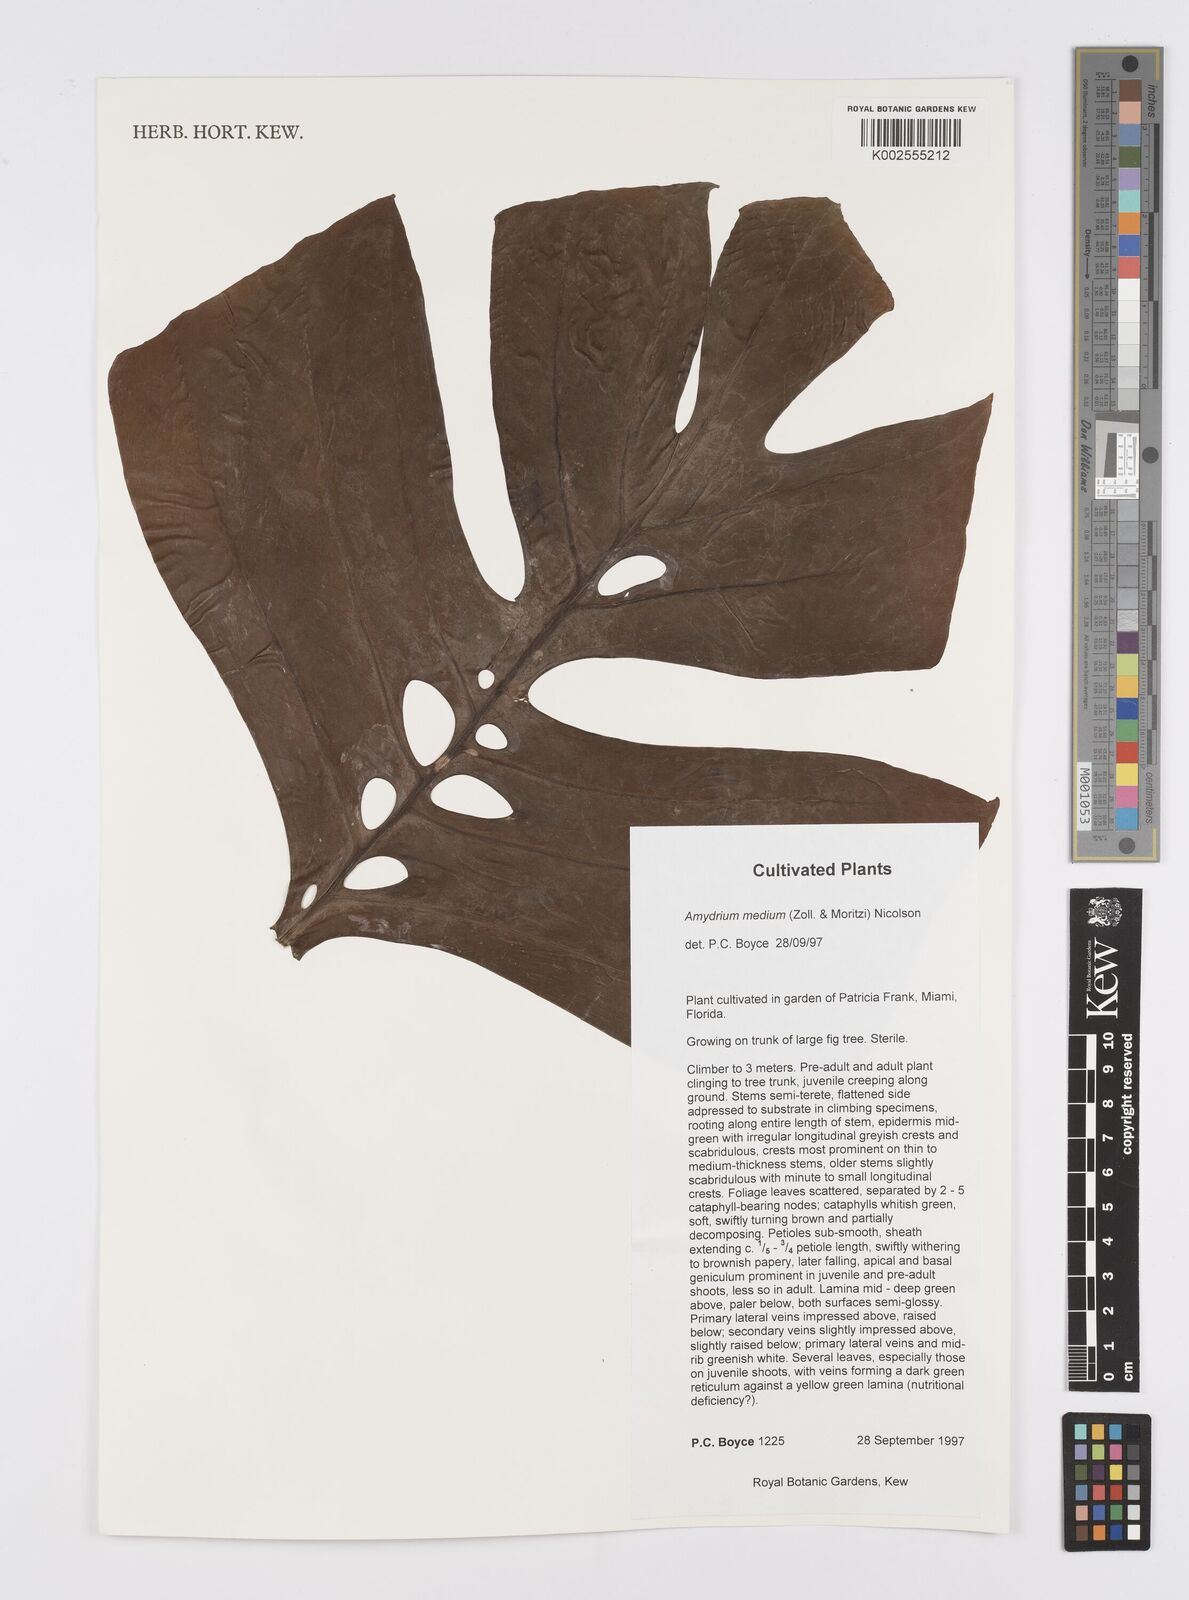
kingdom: Plantae
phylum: Tracheophyta
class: Liliopsida
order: Alismatales
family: Araceae
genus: Amydrium
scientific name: Amydrium medium
